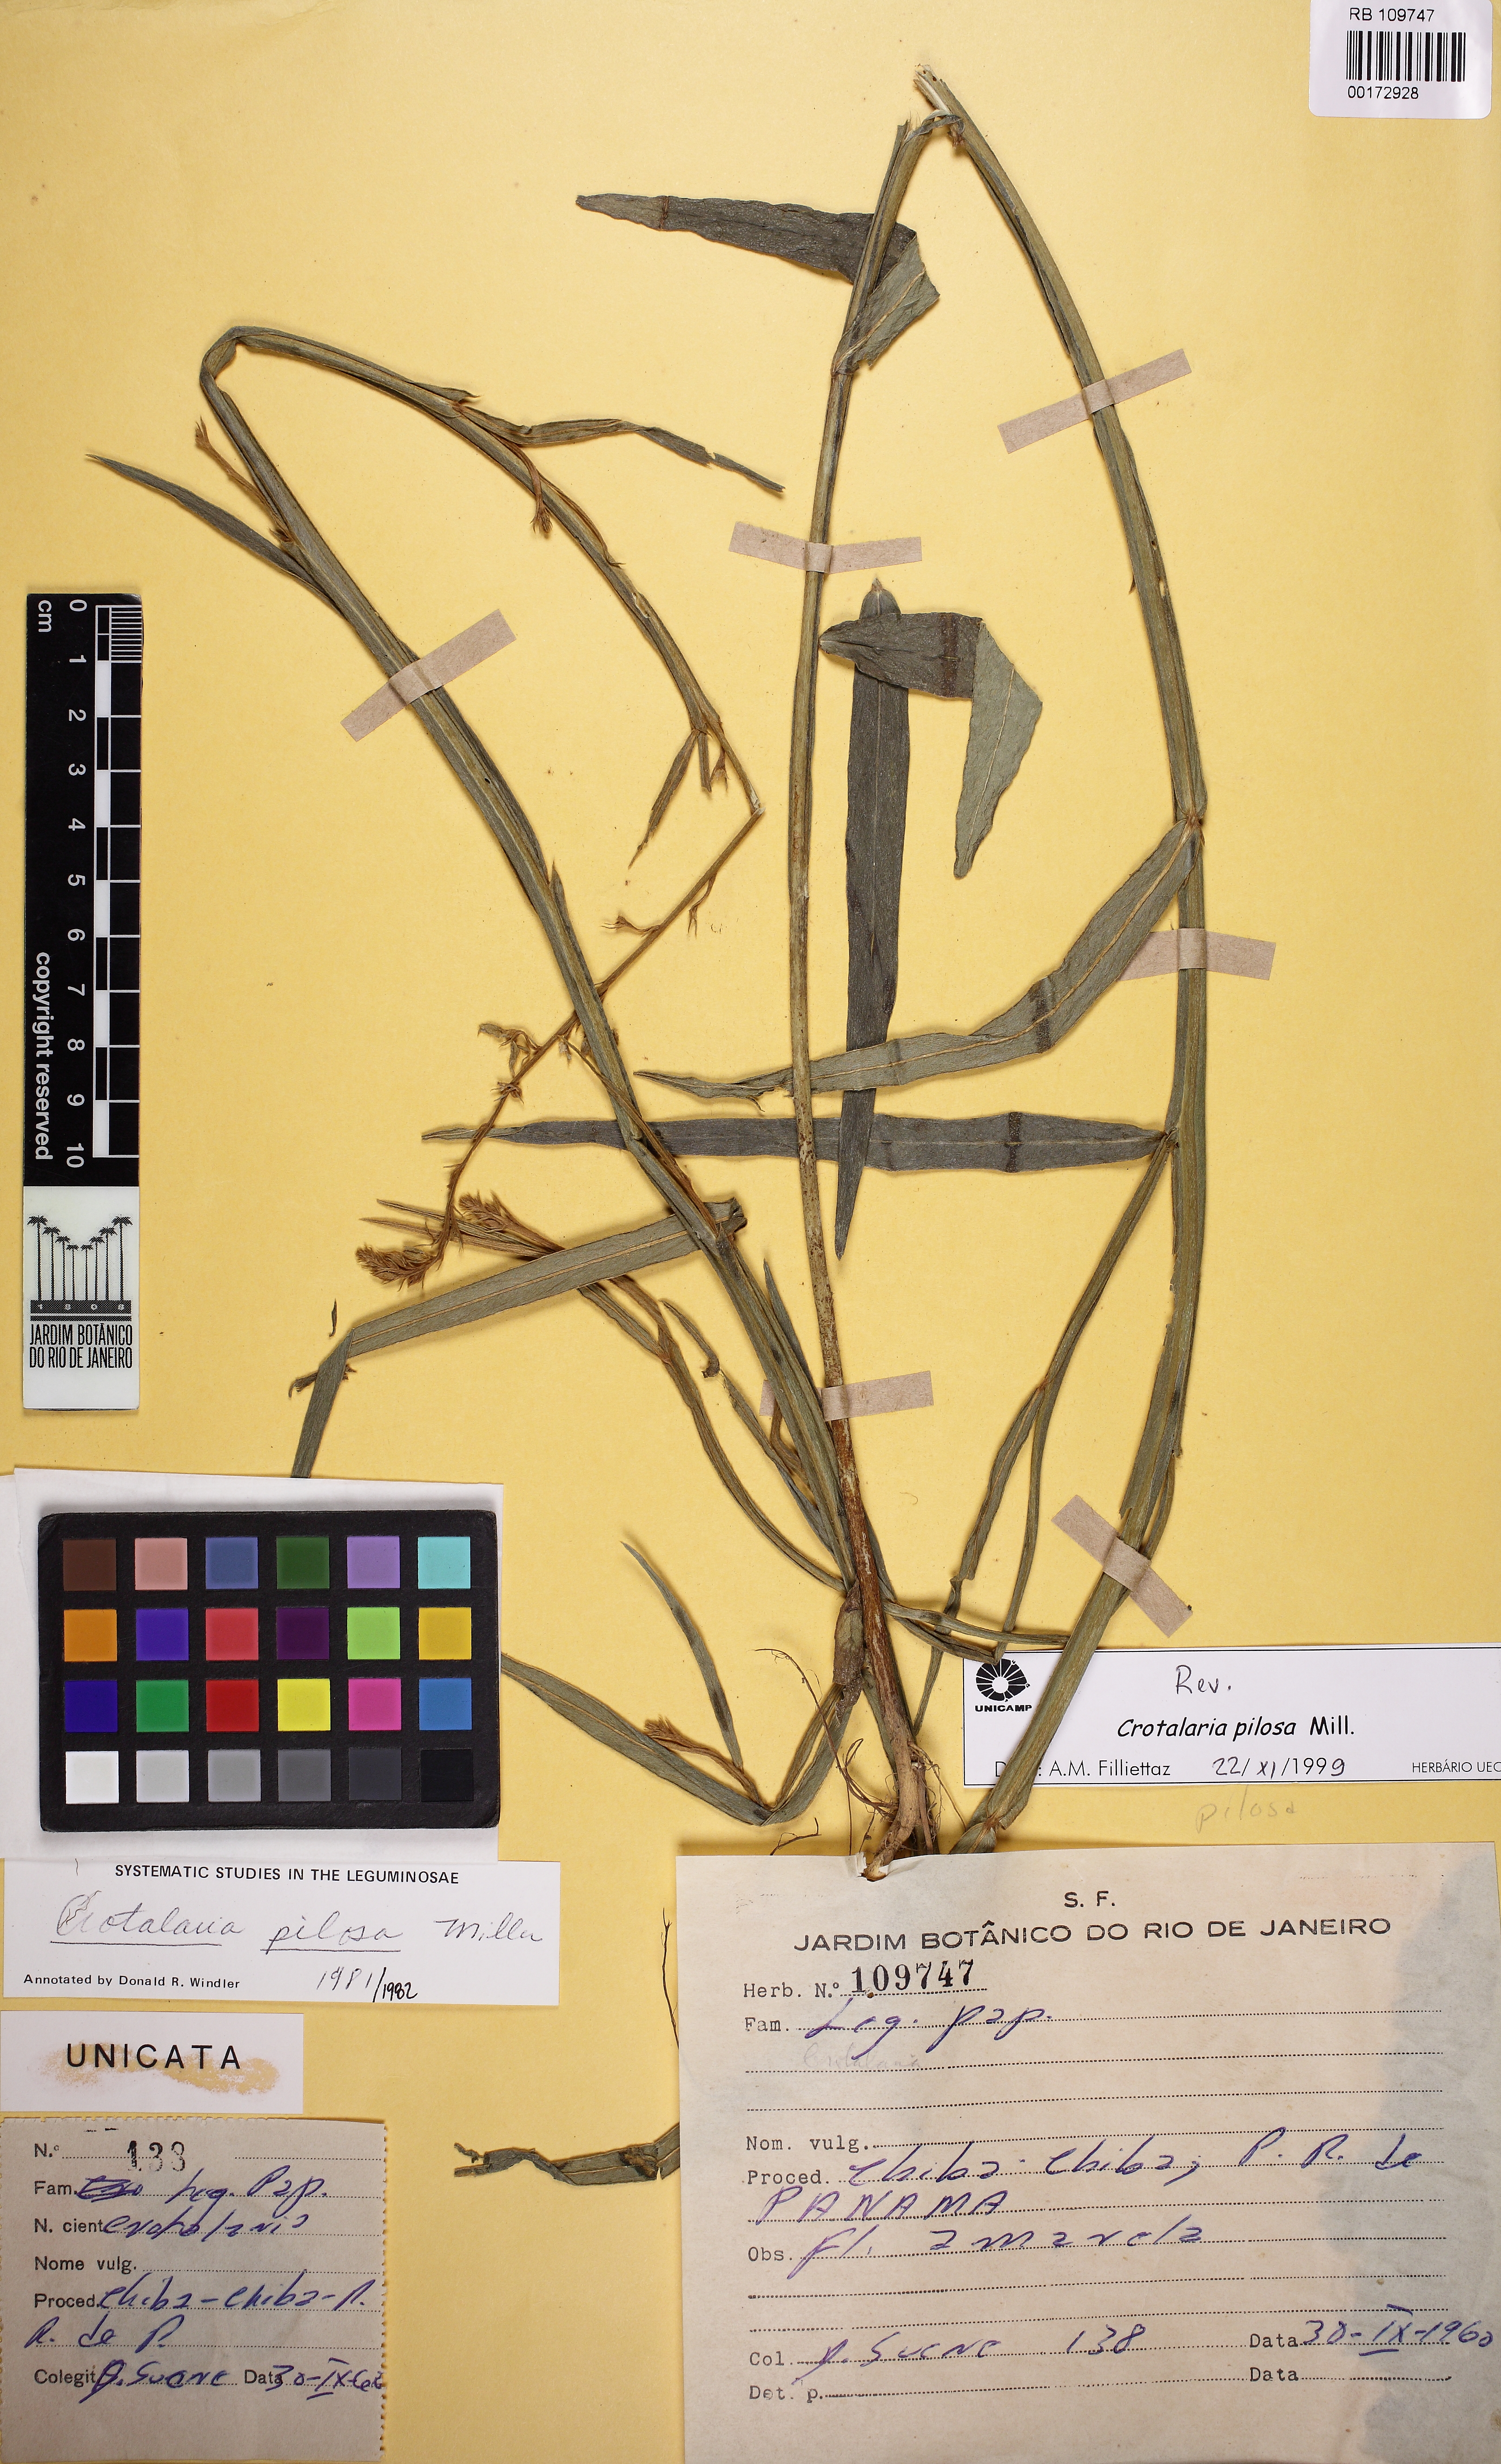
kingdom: Plantae
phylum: Tracheophyta
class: Magnoliopsida
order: Fabales
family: Fabaceae
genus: Crotalaria
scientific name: Crotalaria pilosa
